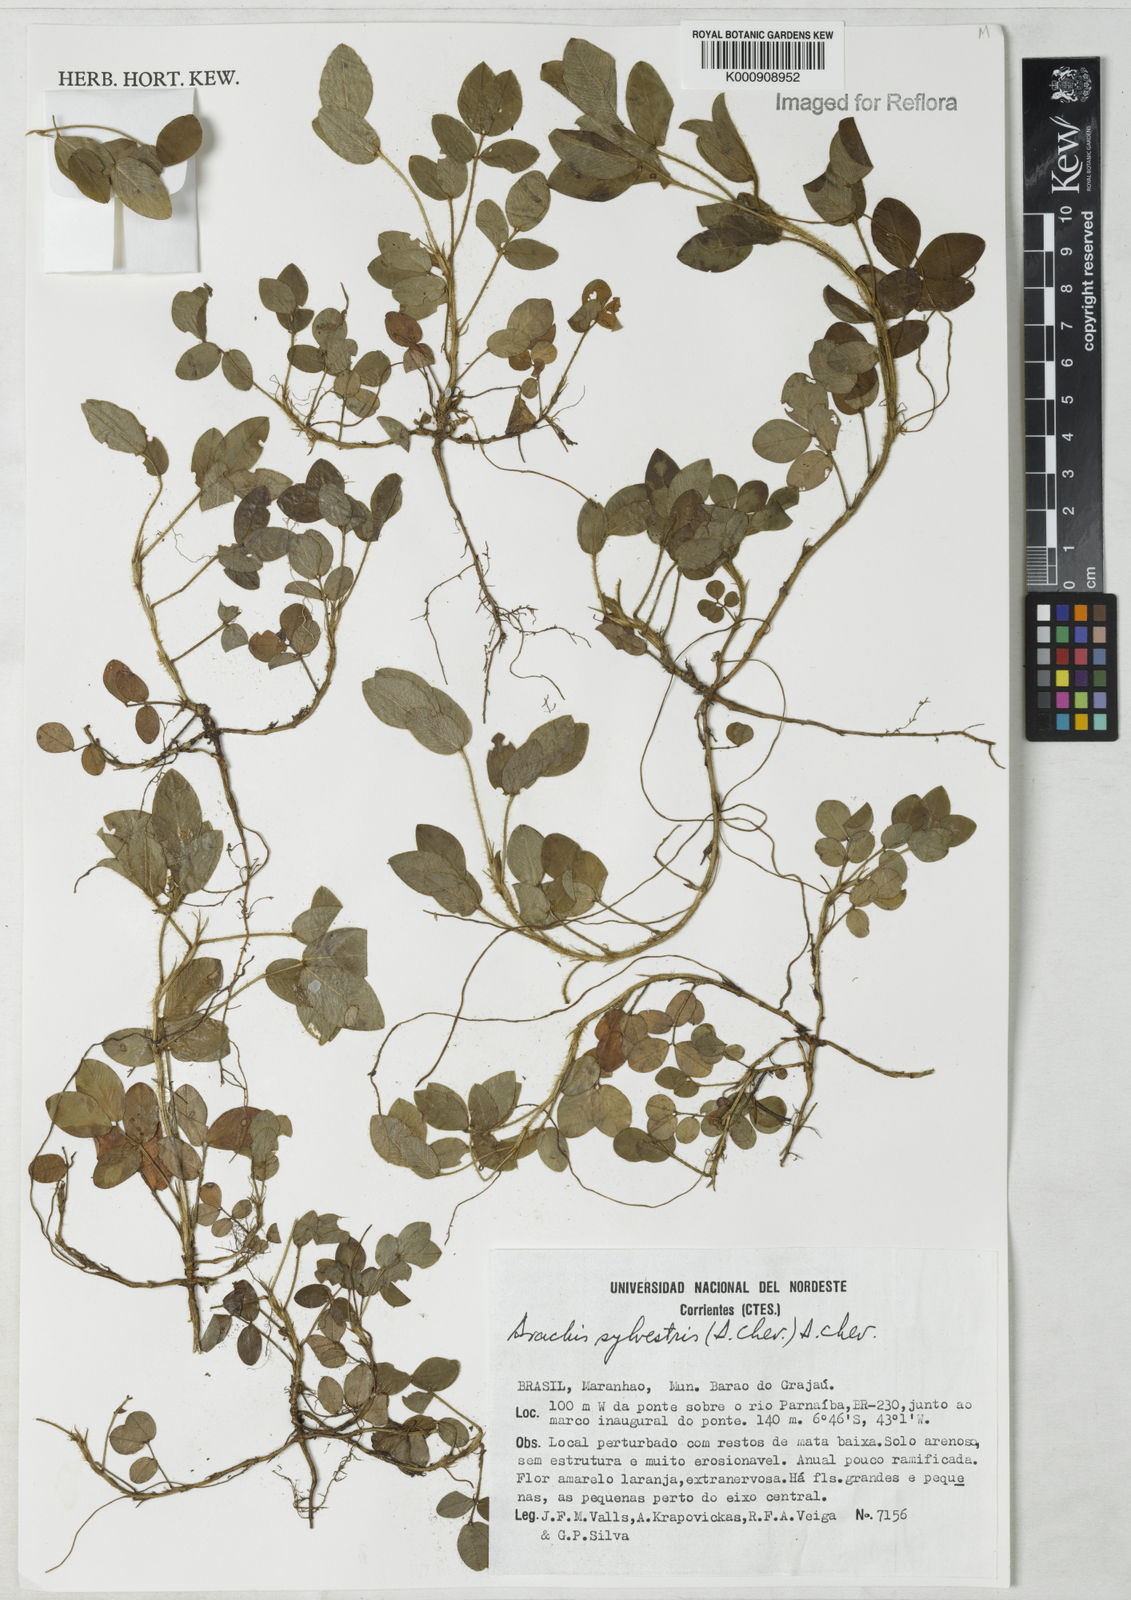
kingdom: Plantae
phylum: Tracheophyta
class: Magnoliopsida
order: Fabales
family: Fabaceae
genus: Arachis
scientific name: Arachis pusilla
